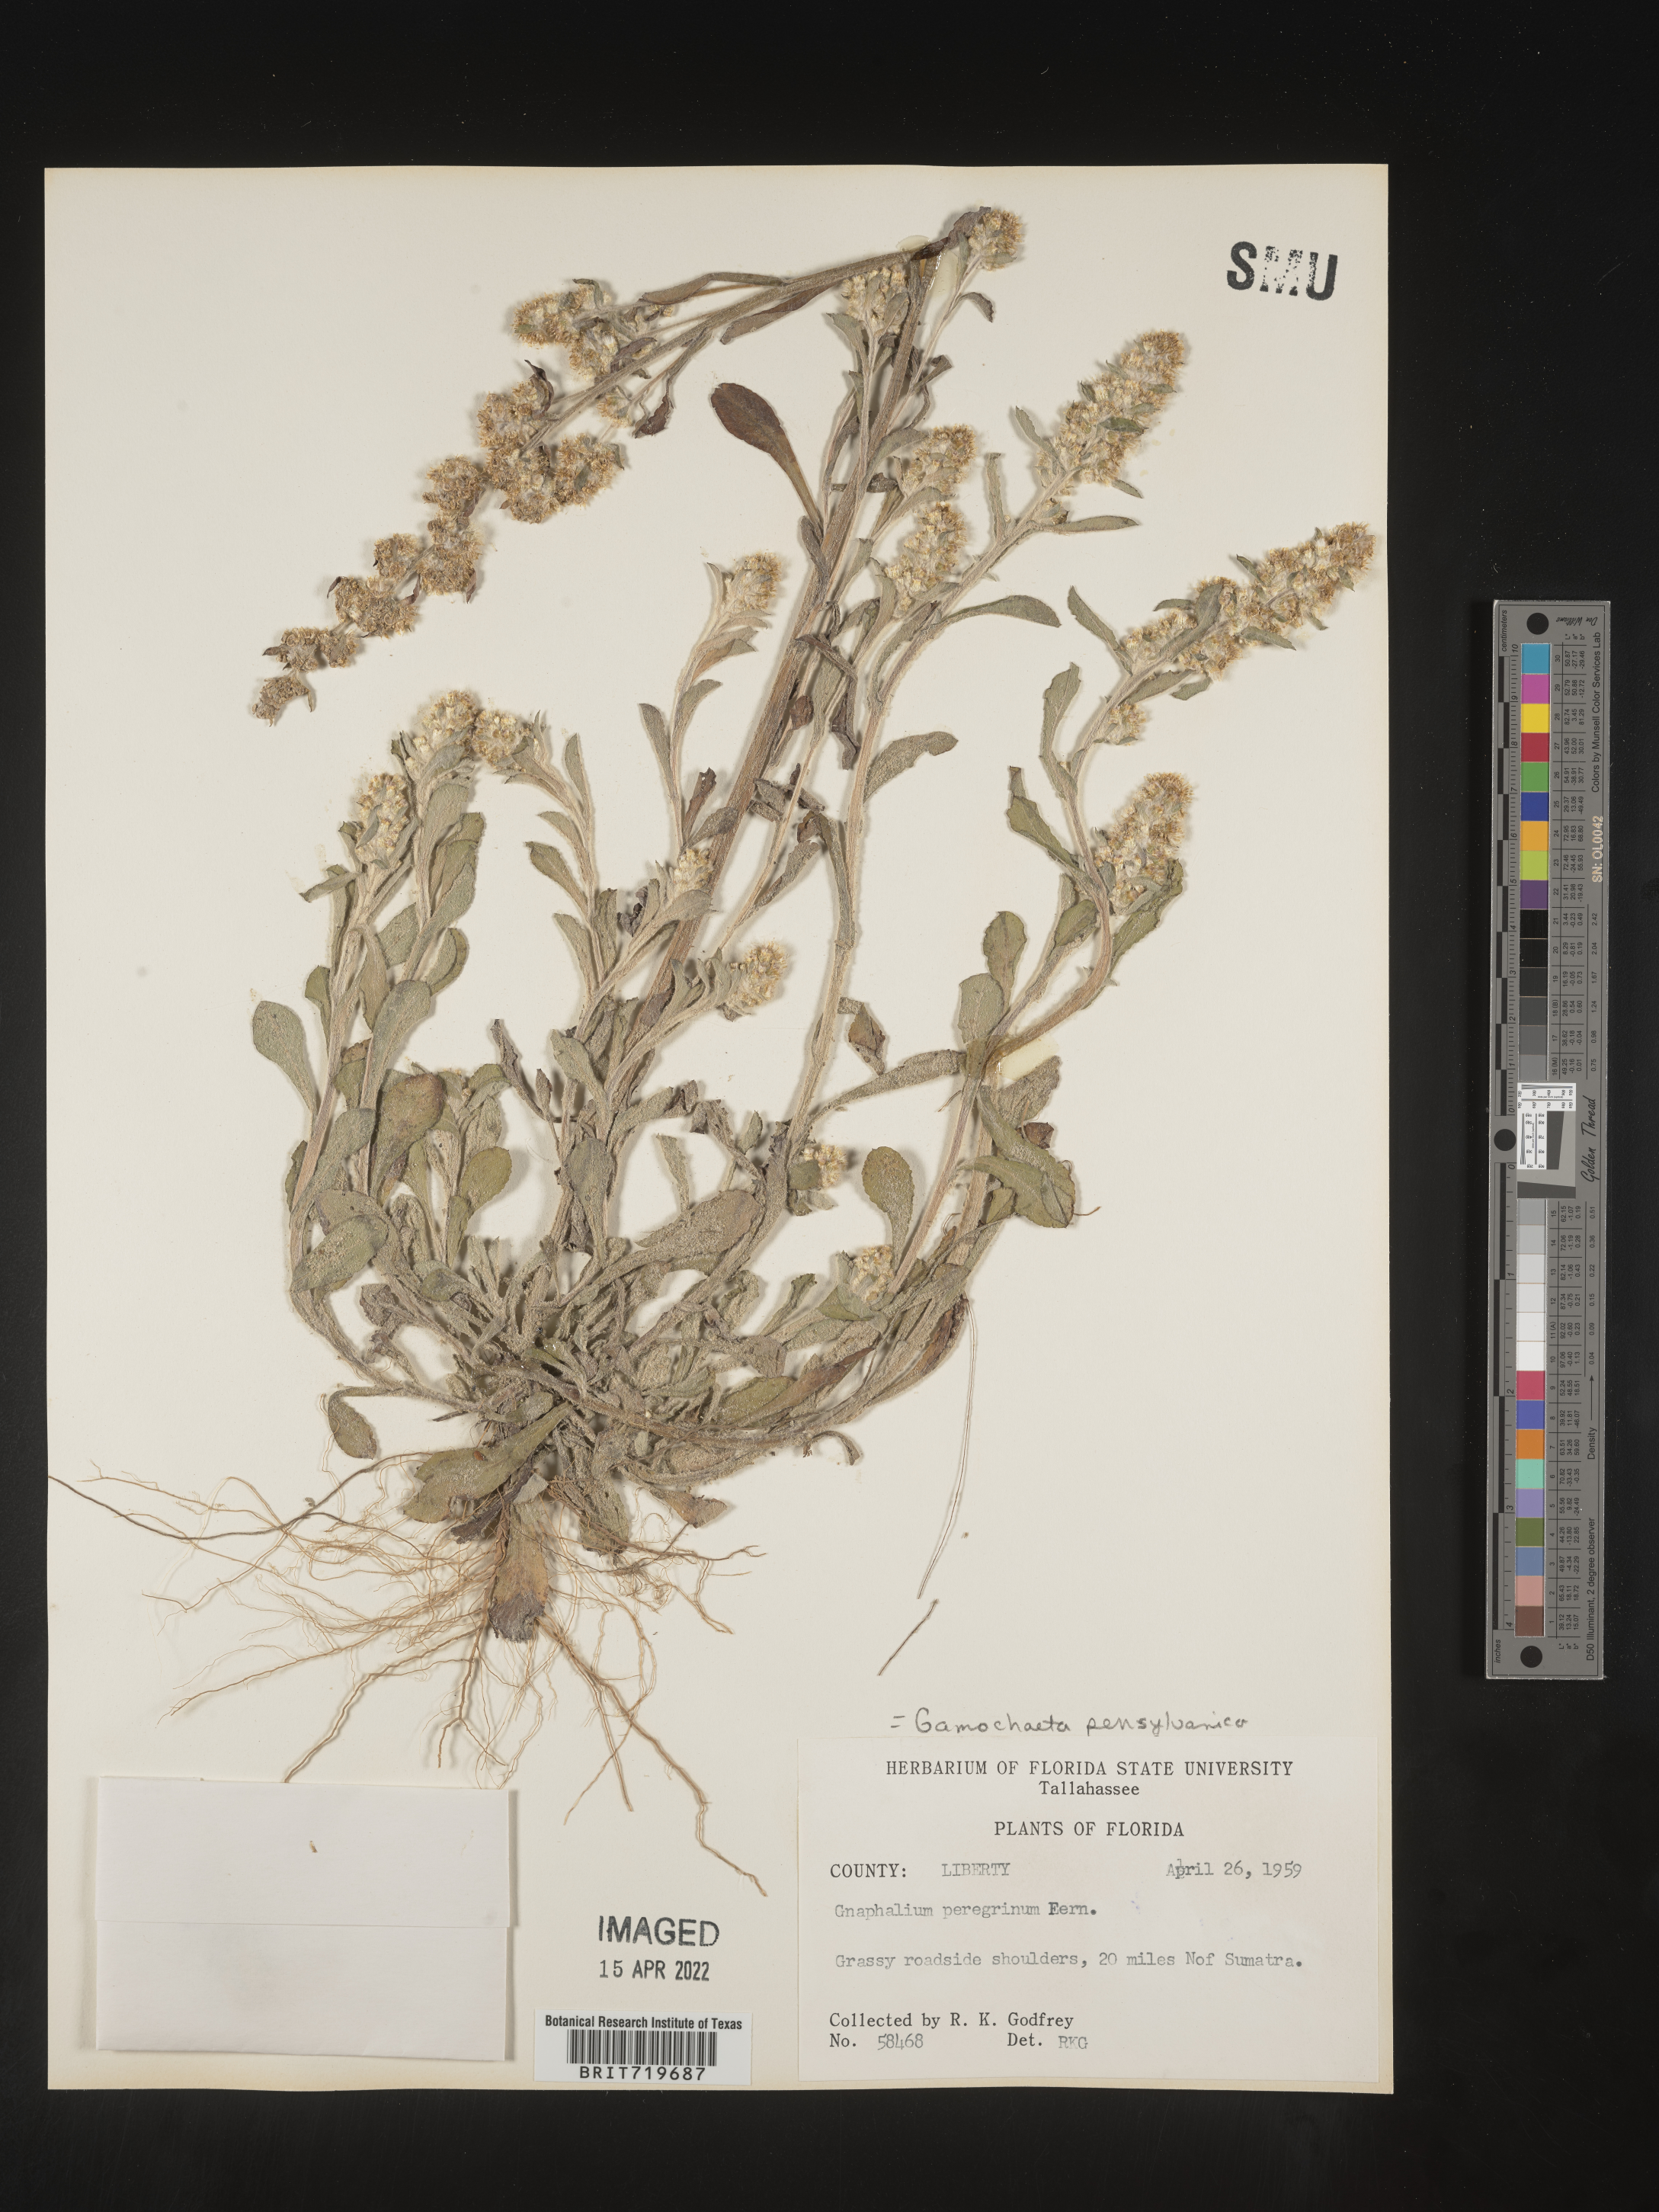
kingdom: Plantae
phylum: Tracheophyta
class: Magnoliopsida
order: Asterales
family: Asteraceae
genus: Gamochaeta
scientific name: Gamochaeta pensylvanica
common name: Pennsylvania everlasting
